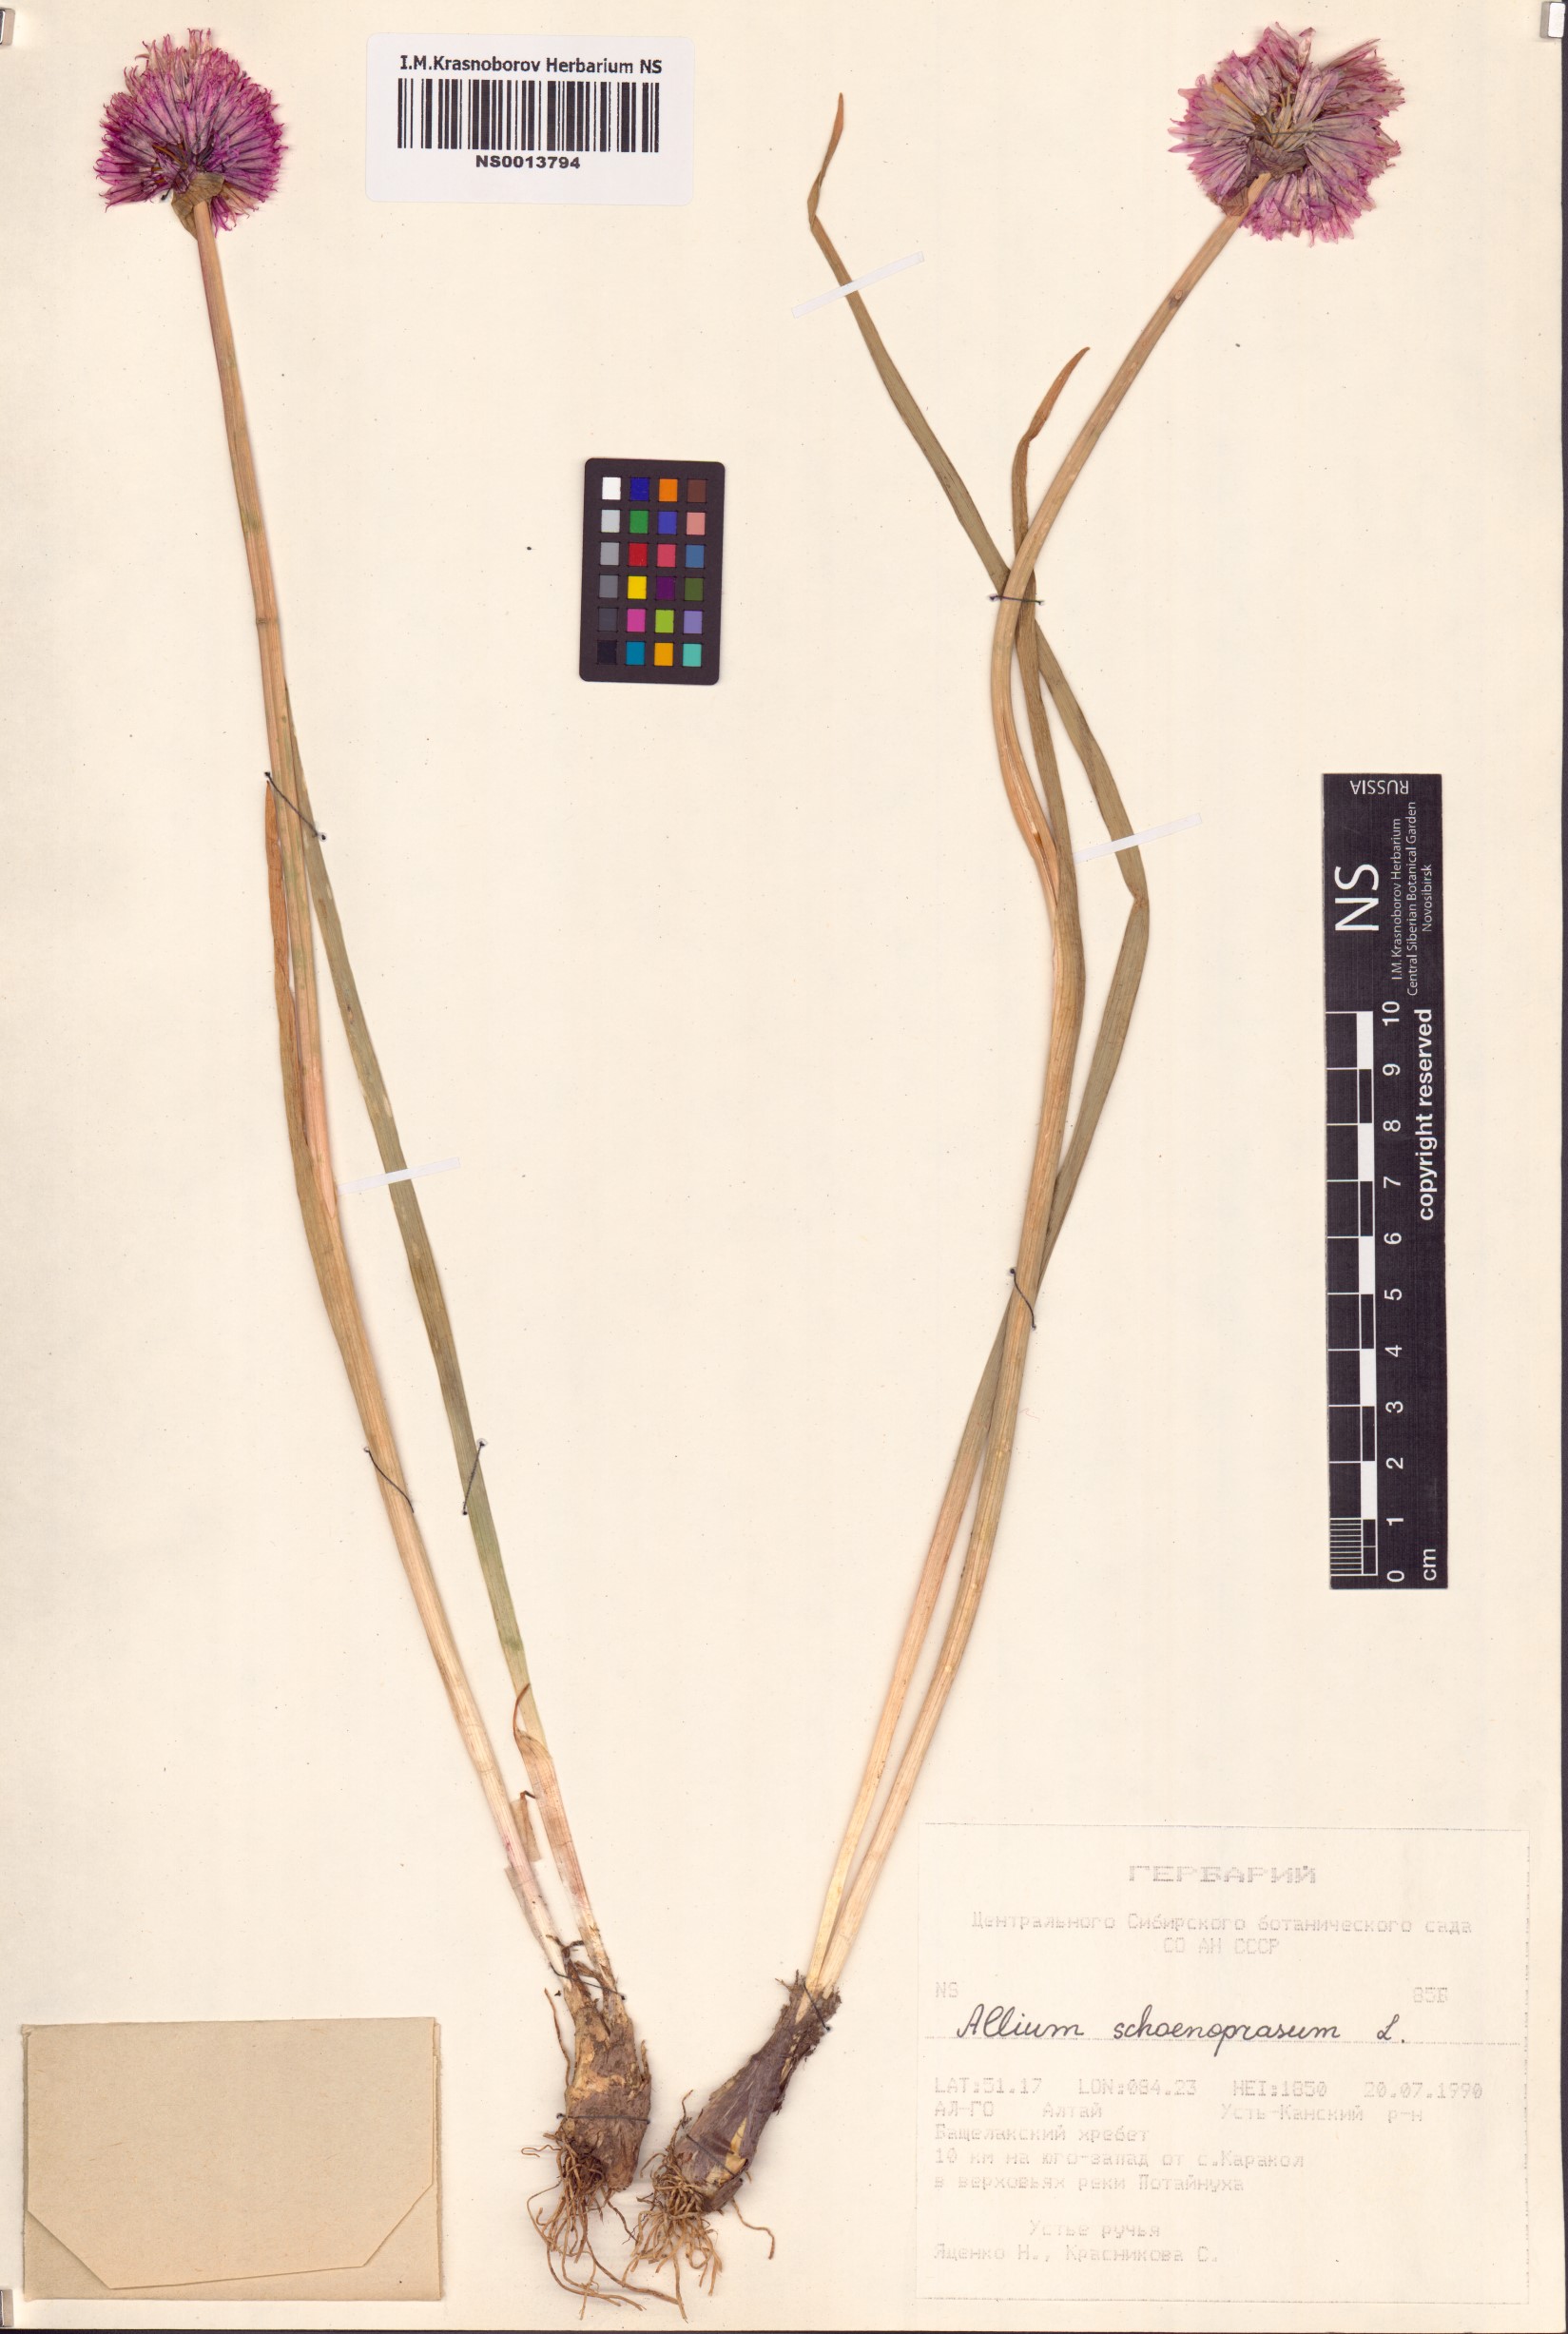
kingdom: Plantae
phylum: Tracheophyta
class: Liliopsida
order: Asparagales
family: Amaryllidaceae
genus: Allium
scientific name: Allium schoenoprasum
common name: Chives
